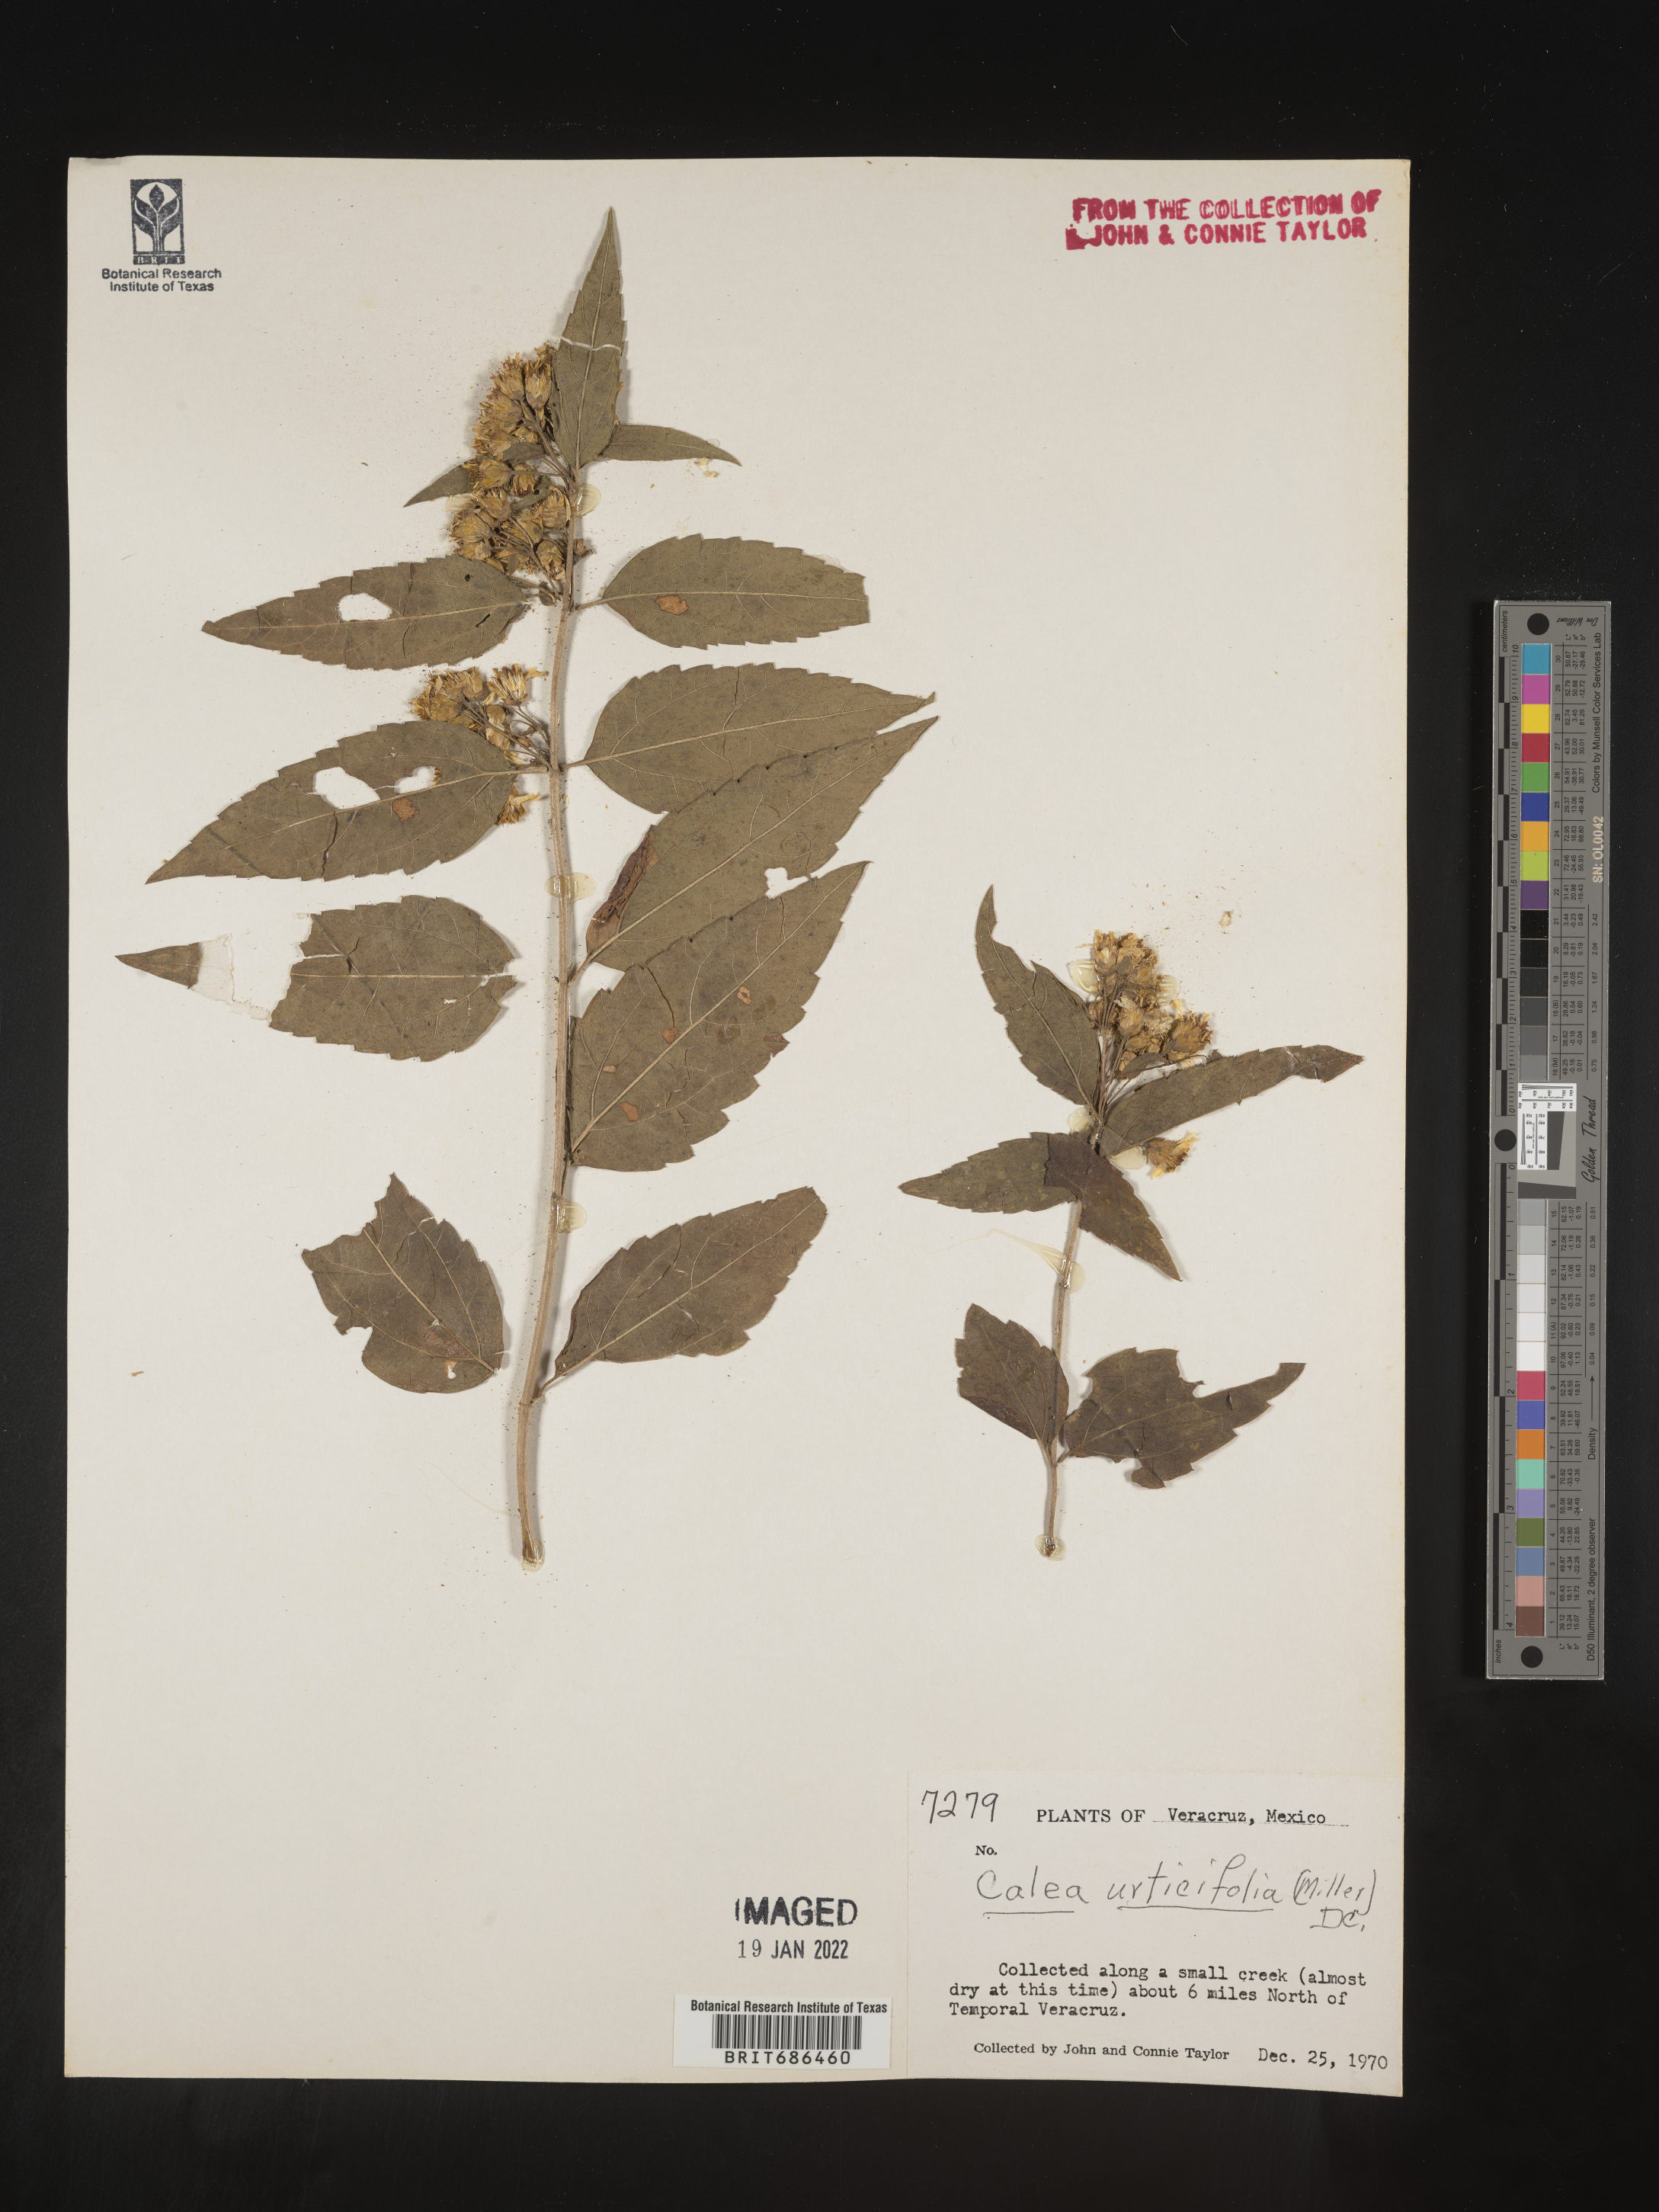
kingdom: Plantae
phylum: Tracheophyta
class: Magnoliopsida
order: Asterales
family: Asteraceae
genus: Calea
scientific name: Calea
